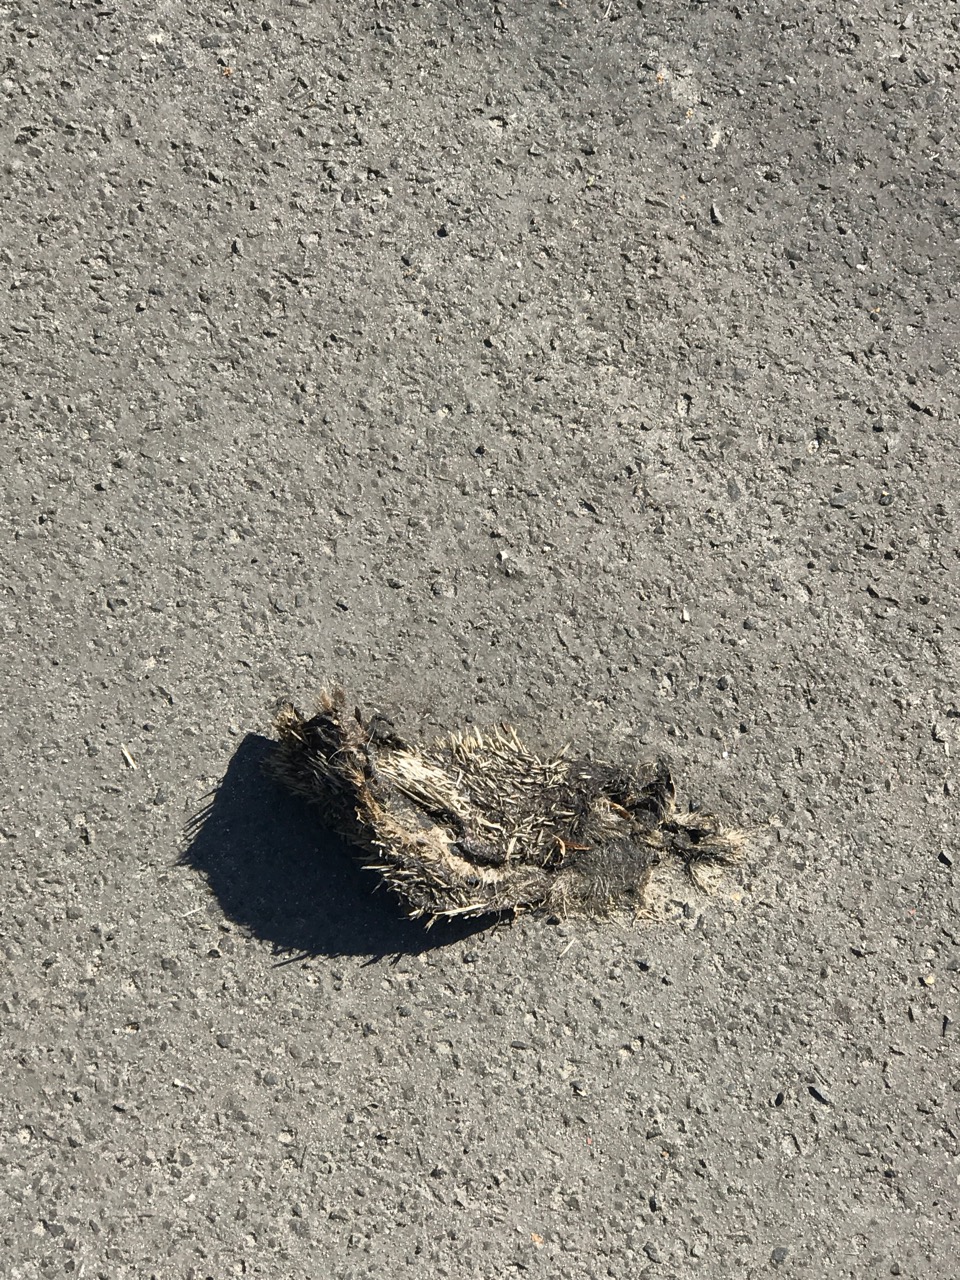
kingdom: Animalia
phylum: Chordata
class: Mammalia
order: Erinaceomorpha
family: Erinaceidae
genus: Erinaceus
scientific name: Erinaceus
